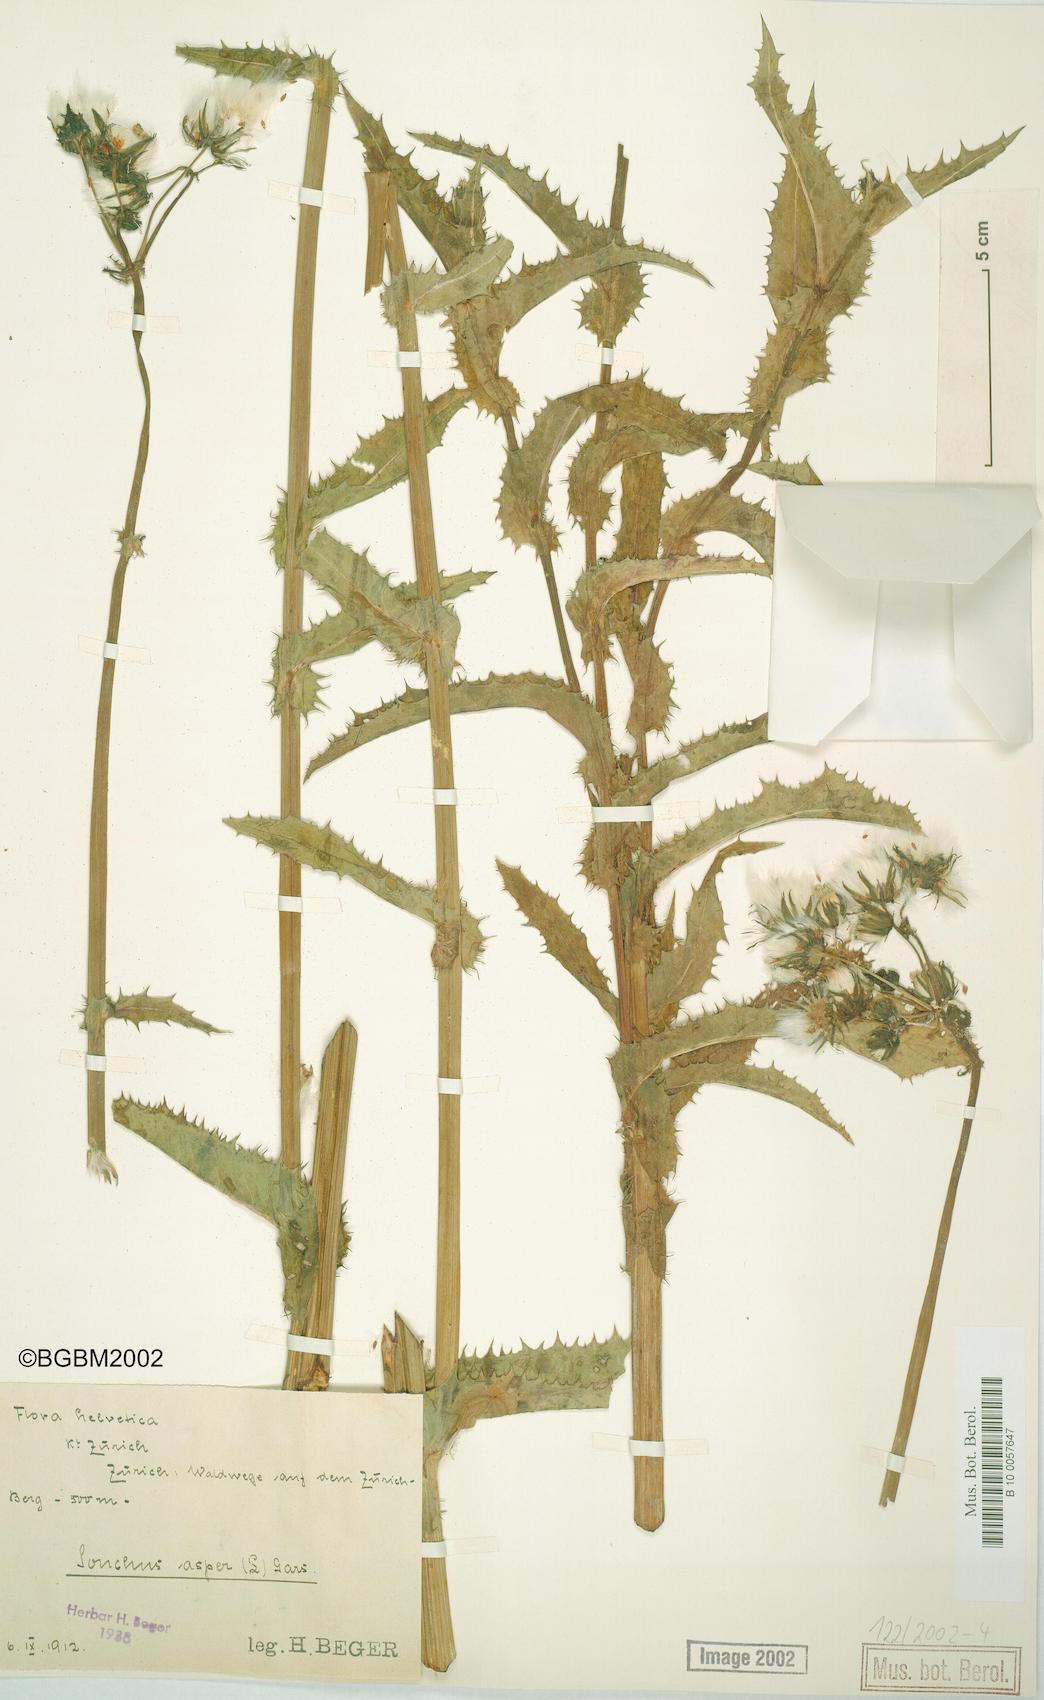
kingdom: Plantae
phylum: Tracheophyta
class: Magnoliopsida
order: Asterales
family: Asteraceae
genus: Sonchus
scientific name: Sonchus asper
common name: Prickly sow-thistle
